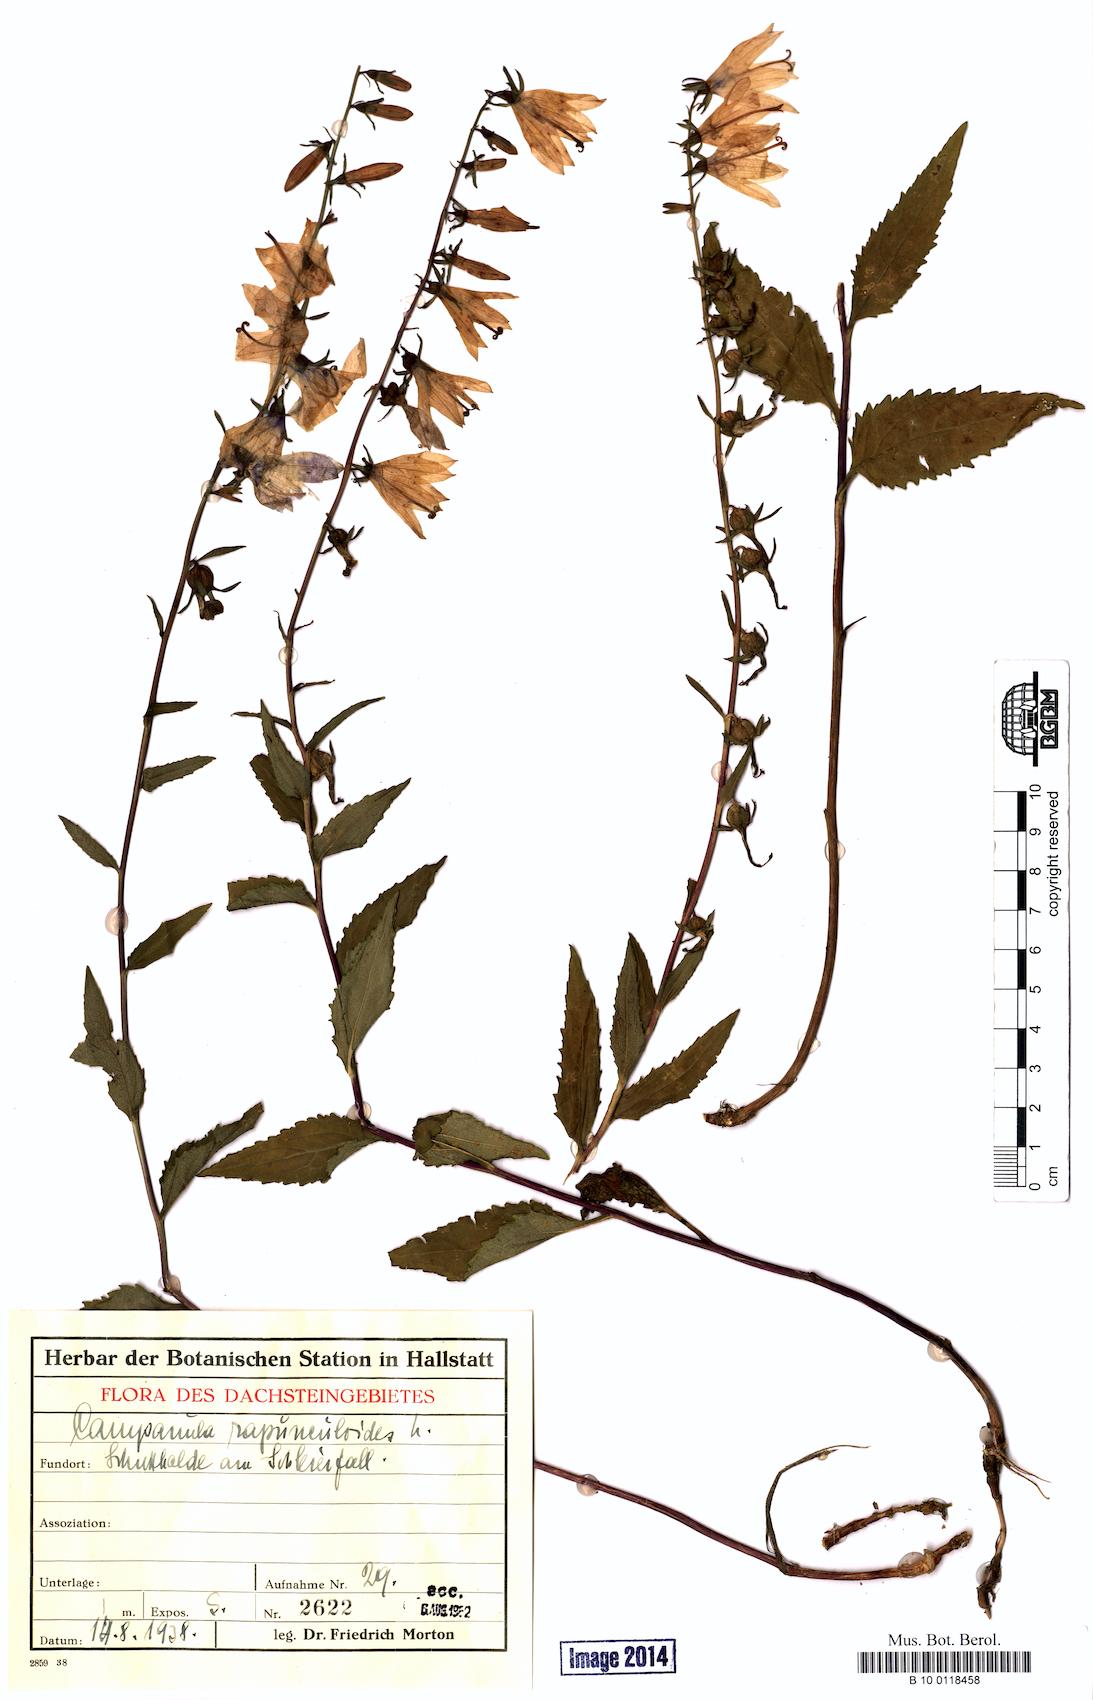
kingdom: Plantae
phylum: Tracheophyta
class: Magnoliopsida
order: Asterales
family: Campanulaceae
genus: Campanula
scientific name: Campanula rapunculoides
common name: Creeping bellflower
